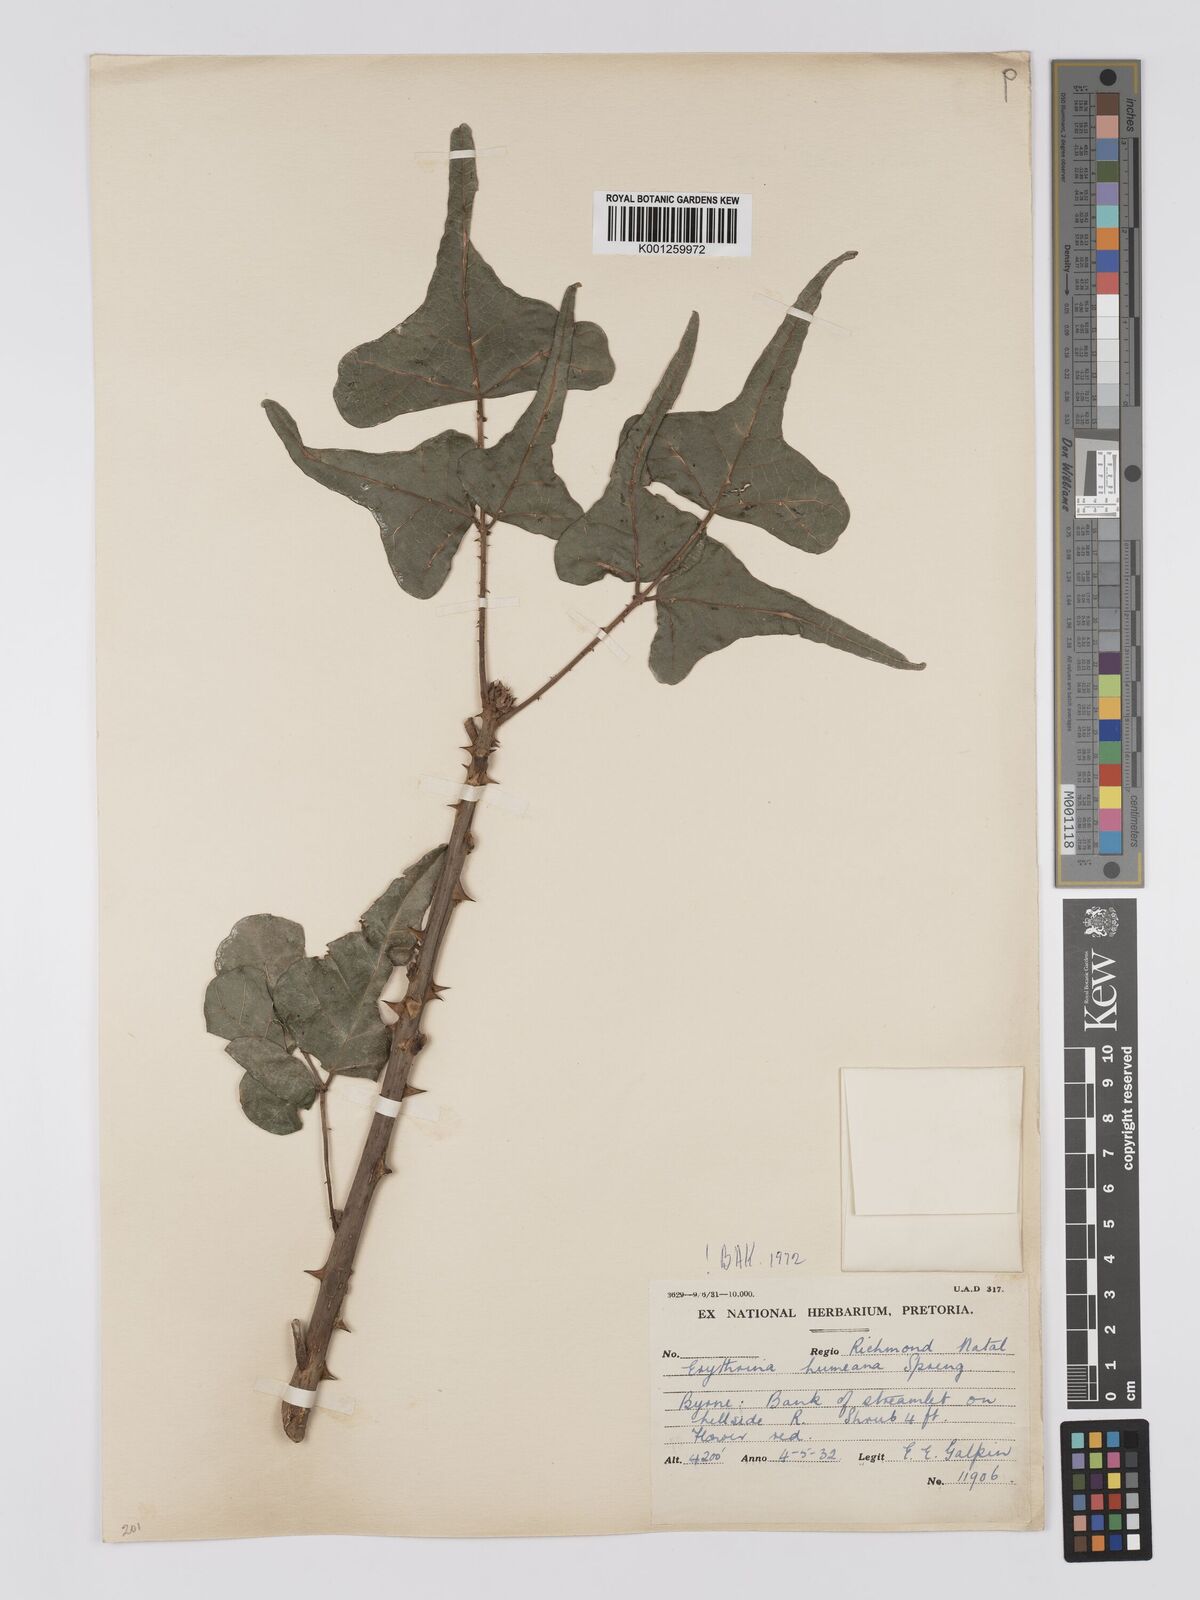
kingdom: Plantae
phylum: Tracheophyta
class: Magnoliopsida
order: Fabales
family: Fabaceae
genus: Erythrina
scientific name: Erythrina humeana
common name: Dwarf coral tree
